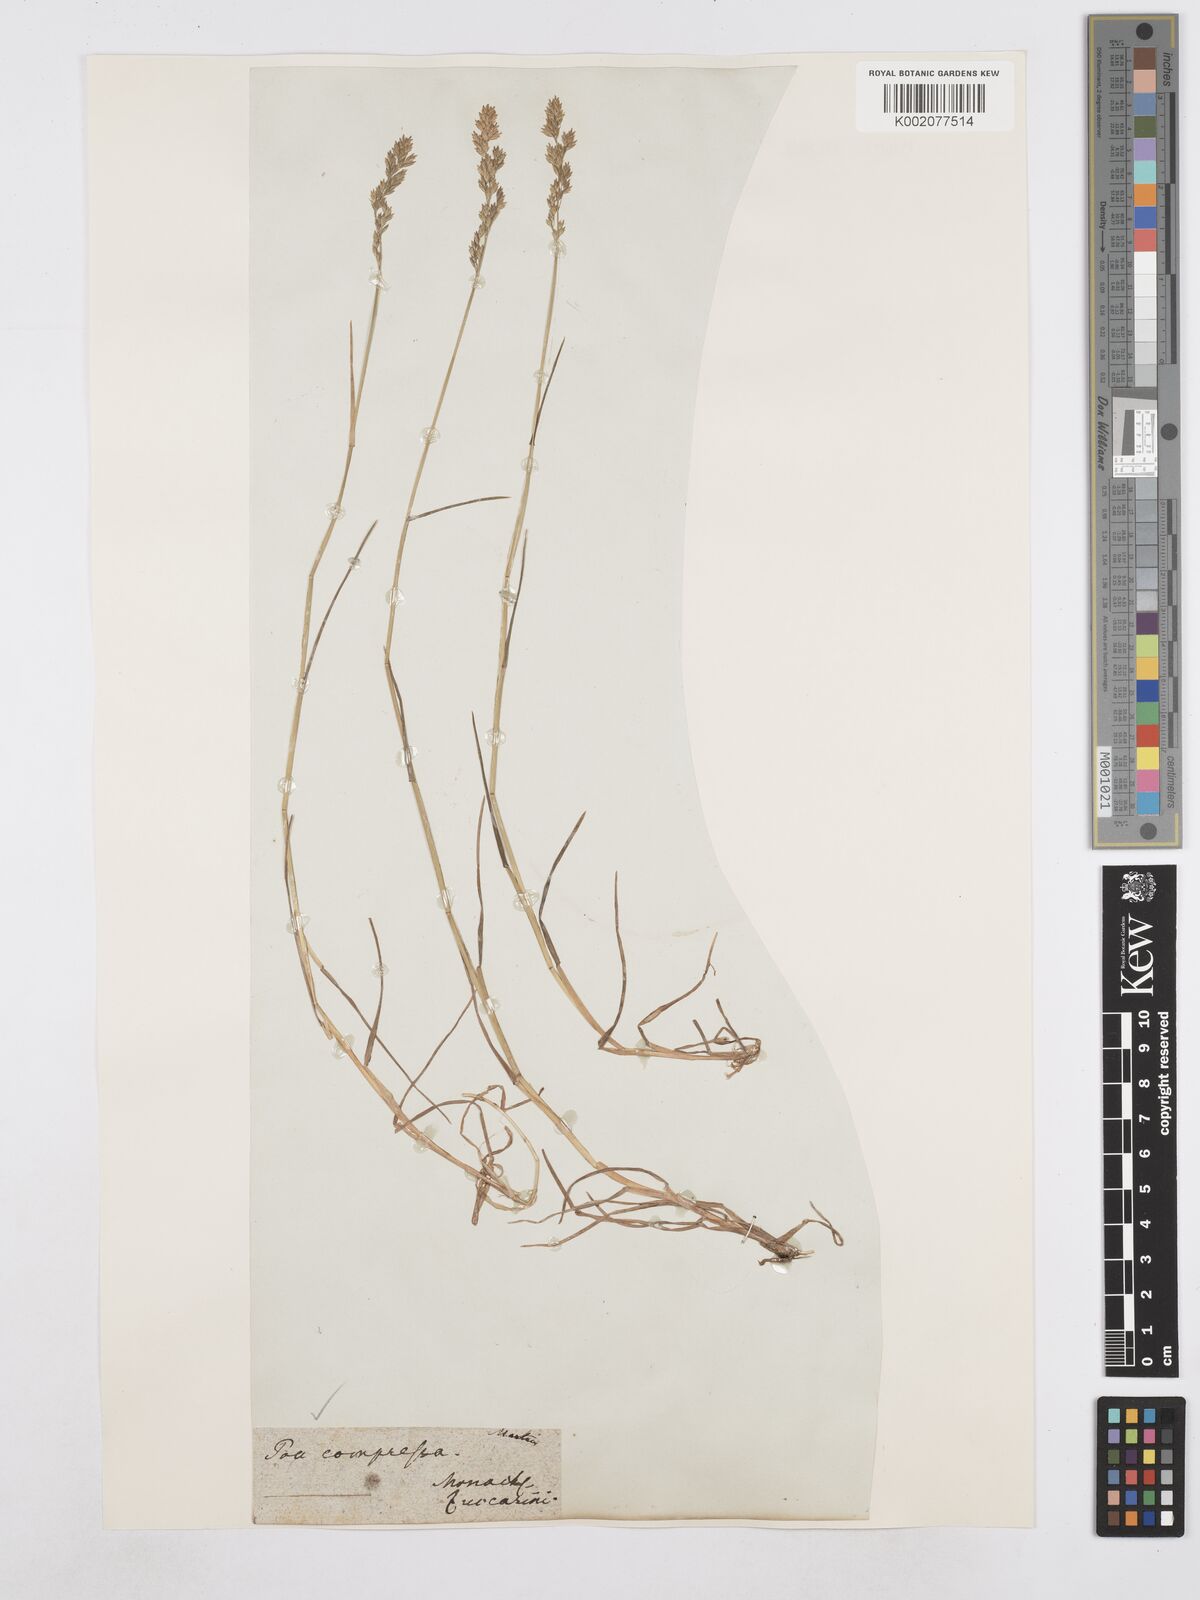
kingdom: Plantae
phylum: Tracheophyta
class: Liliopsida
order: Poales
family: Poaceae
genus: Poa
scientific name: Poa compressa
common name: Canada bluegrass
